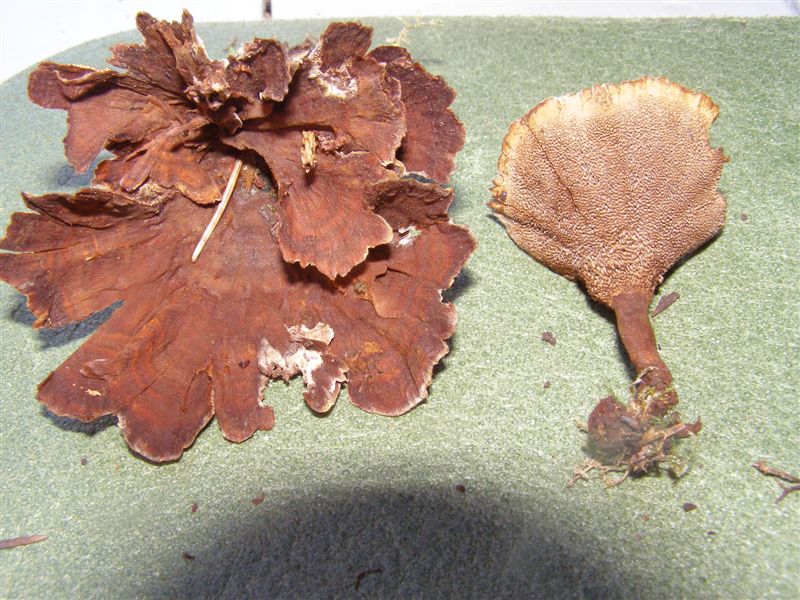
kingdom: Fungi
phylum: Basidiomycota
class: Agaricomycetes
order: Hymenochaetales
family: Hymenochaetaceae
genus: Coltricia
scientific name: Coltricia perennis
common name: almindelig sandporesvamp
